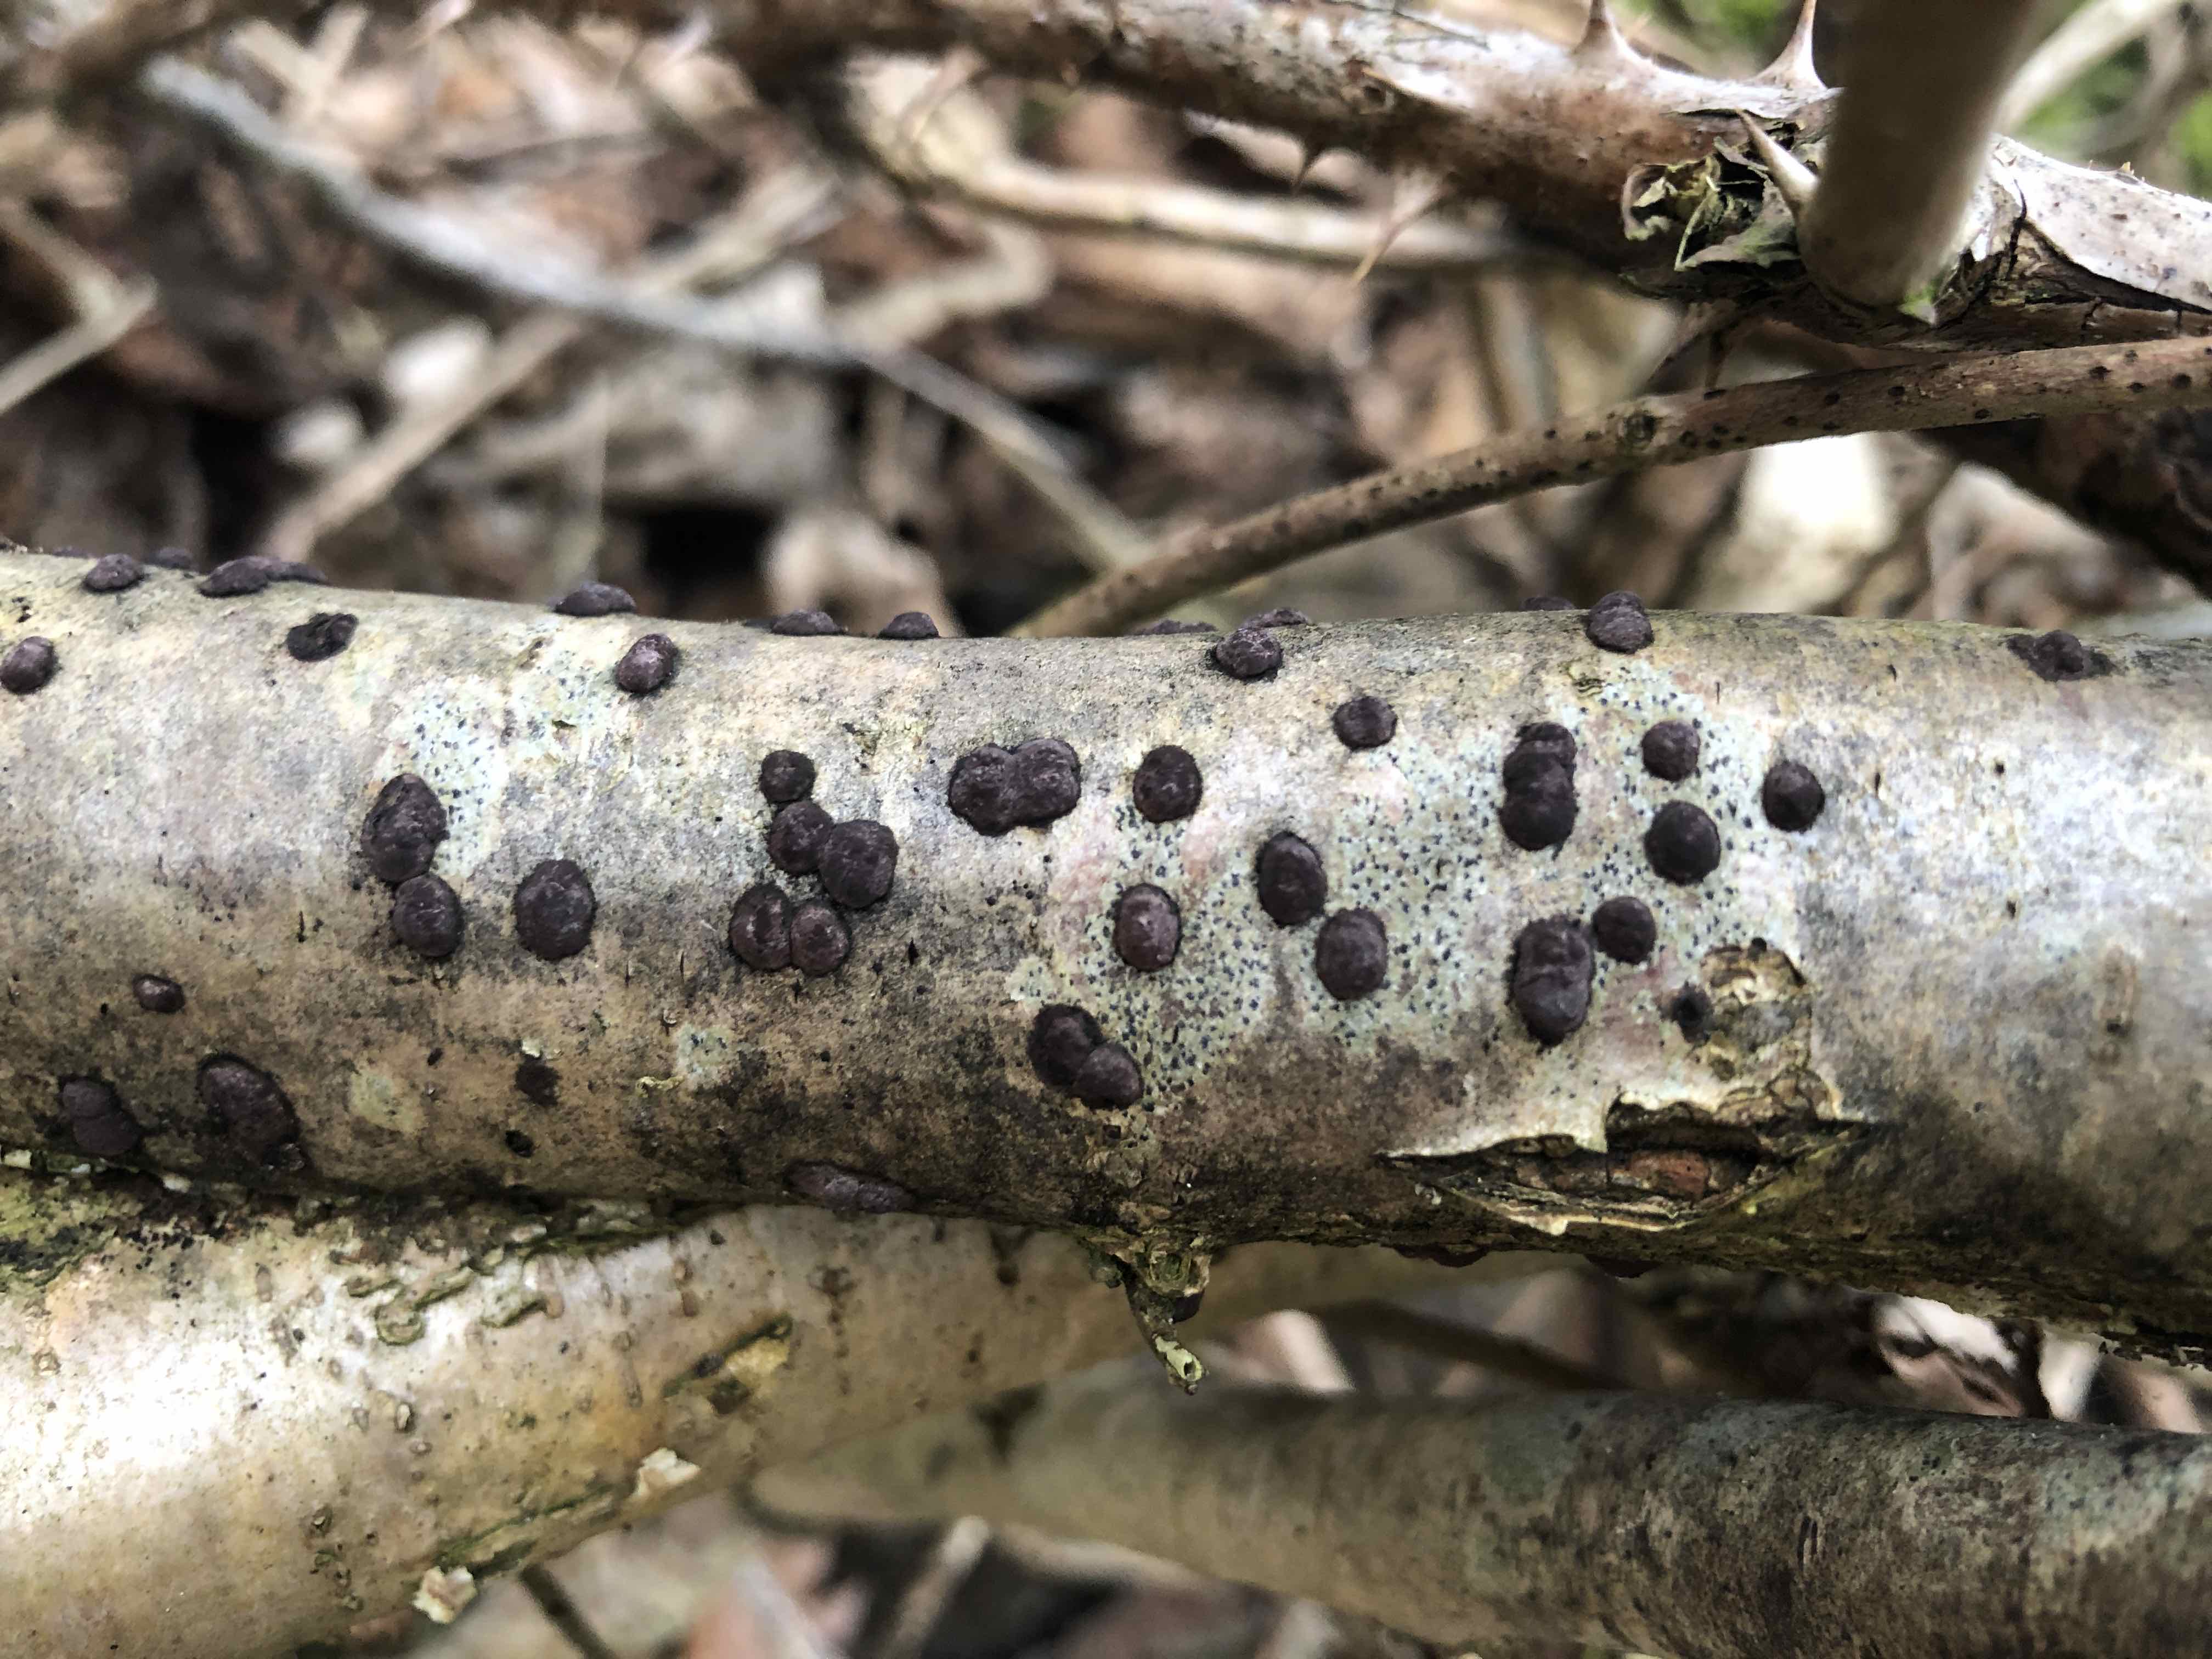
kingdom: Fungi
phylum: Ascomycota
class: Sordariomycetes
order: Xylariales
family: Hypoxylaceae
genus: Hypoxylon
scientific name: Hypoxylon fuscum
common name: kegleformet kulbær
